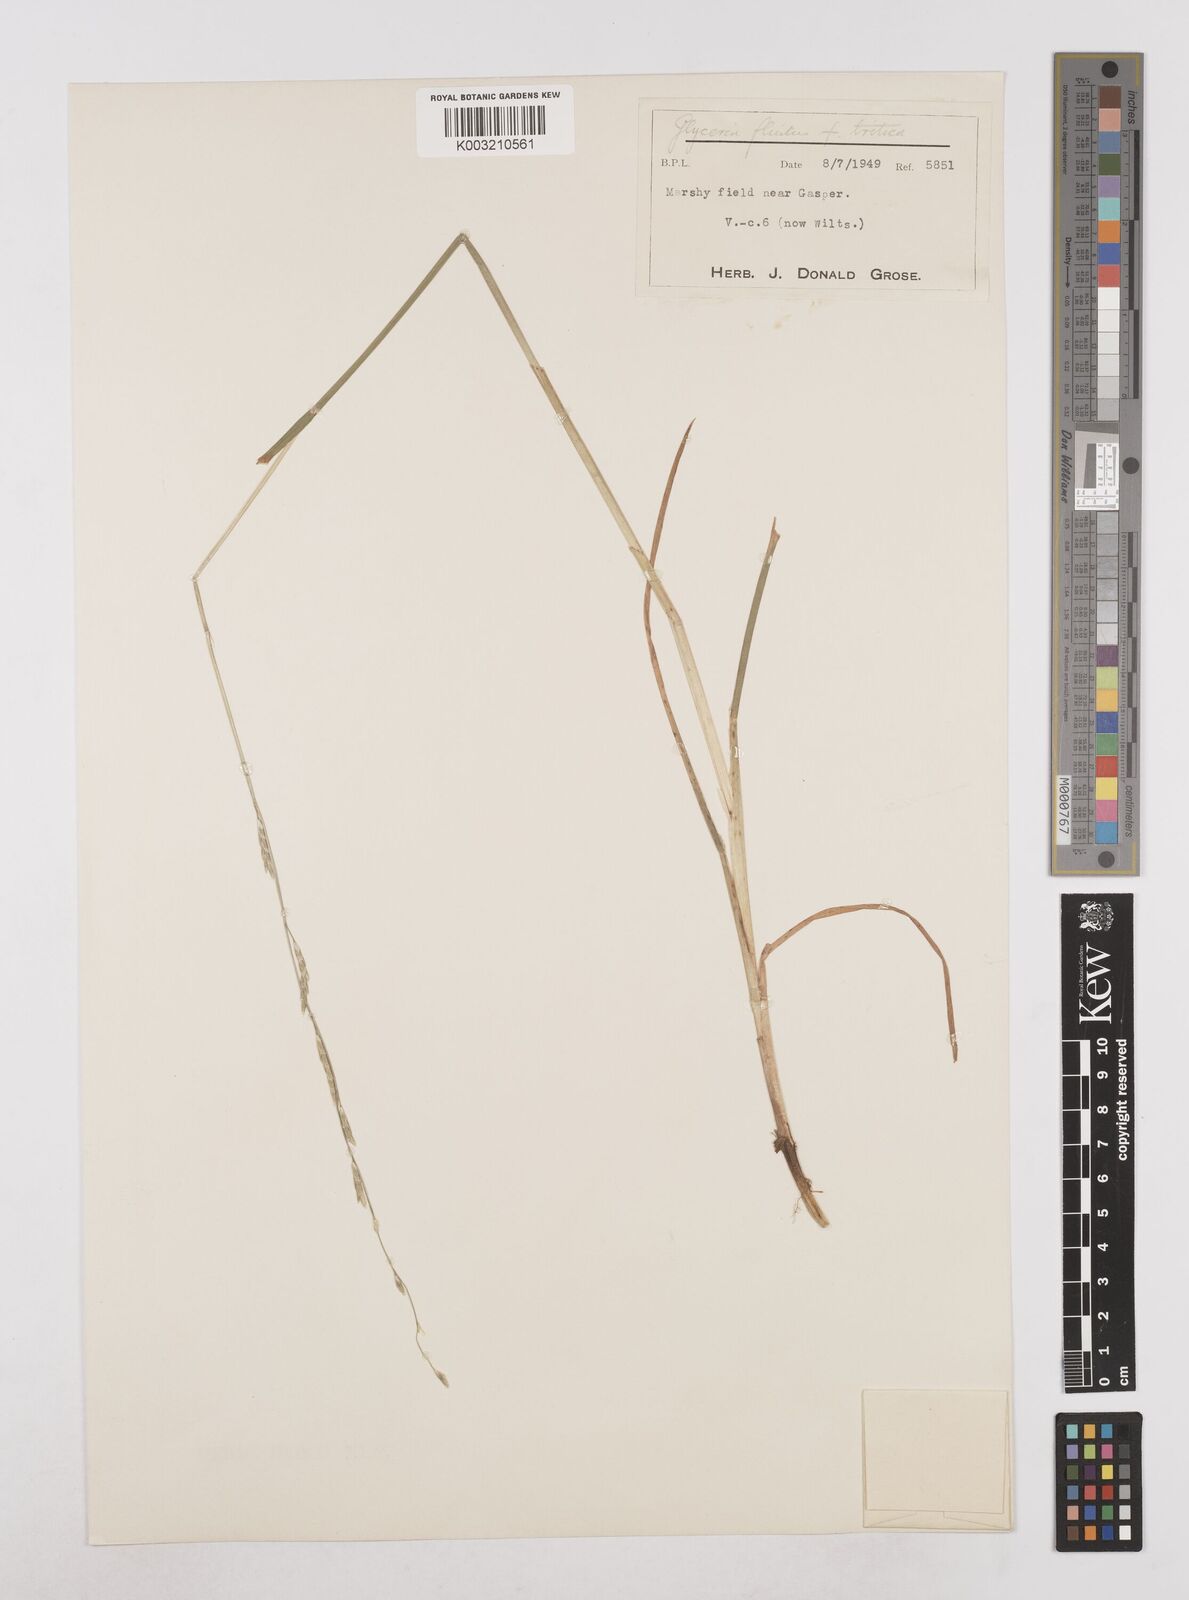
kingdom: Plantae
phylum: Tracheophyta
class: Liliopsida
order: Poales
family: Poaceae
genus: Glyceria
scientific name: Glyceria fluitans
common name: Floating sweet-grass
